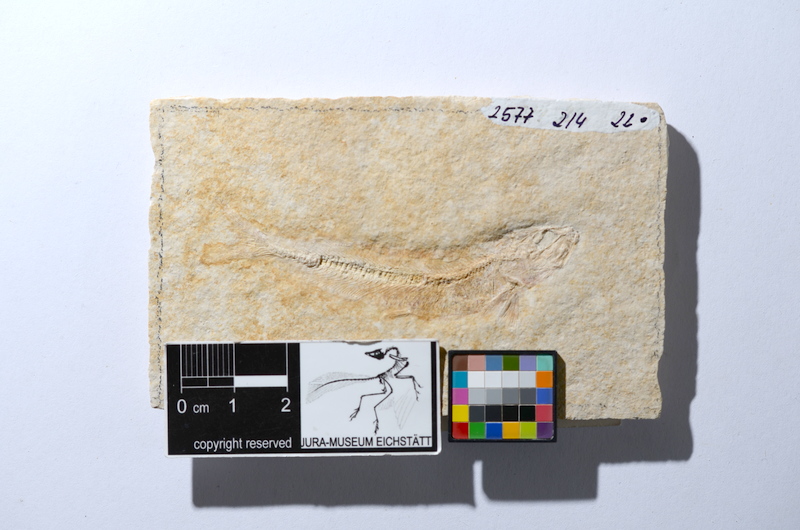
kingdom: Animalia
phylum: Chordata
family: Allothrissopidae
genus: Allothrissops
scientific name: Allothrissops mesogaster
